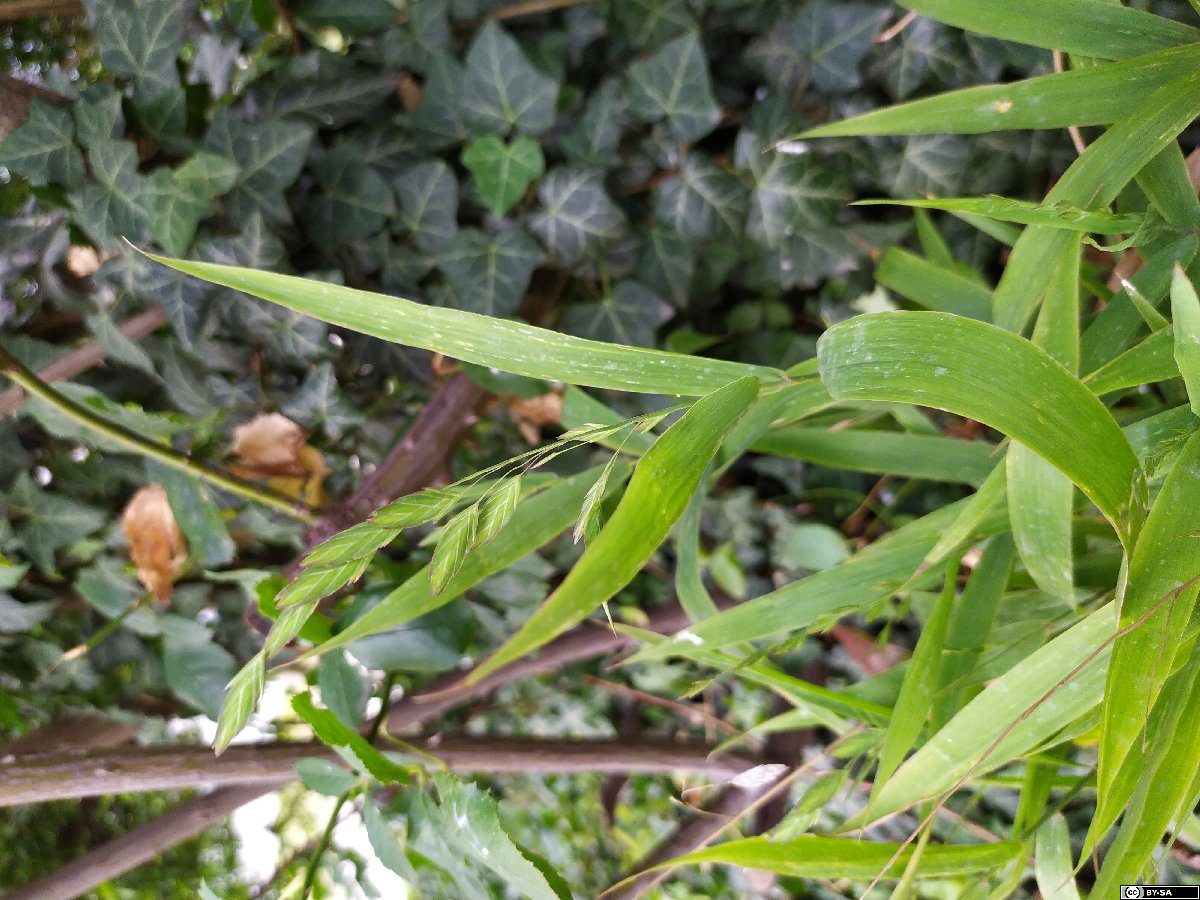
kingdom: Plantae
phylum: Tracheophyta
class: Liliopsida
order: Poales
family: Poaceae
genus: Chasmanthium
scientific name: Chasmanthium latifolium
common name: Broad-leaved chasmanthium
